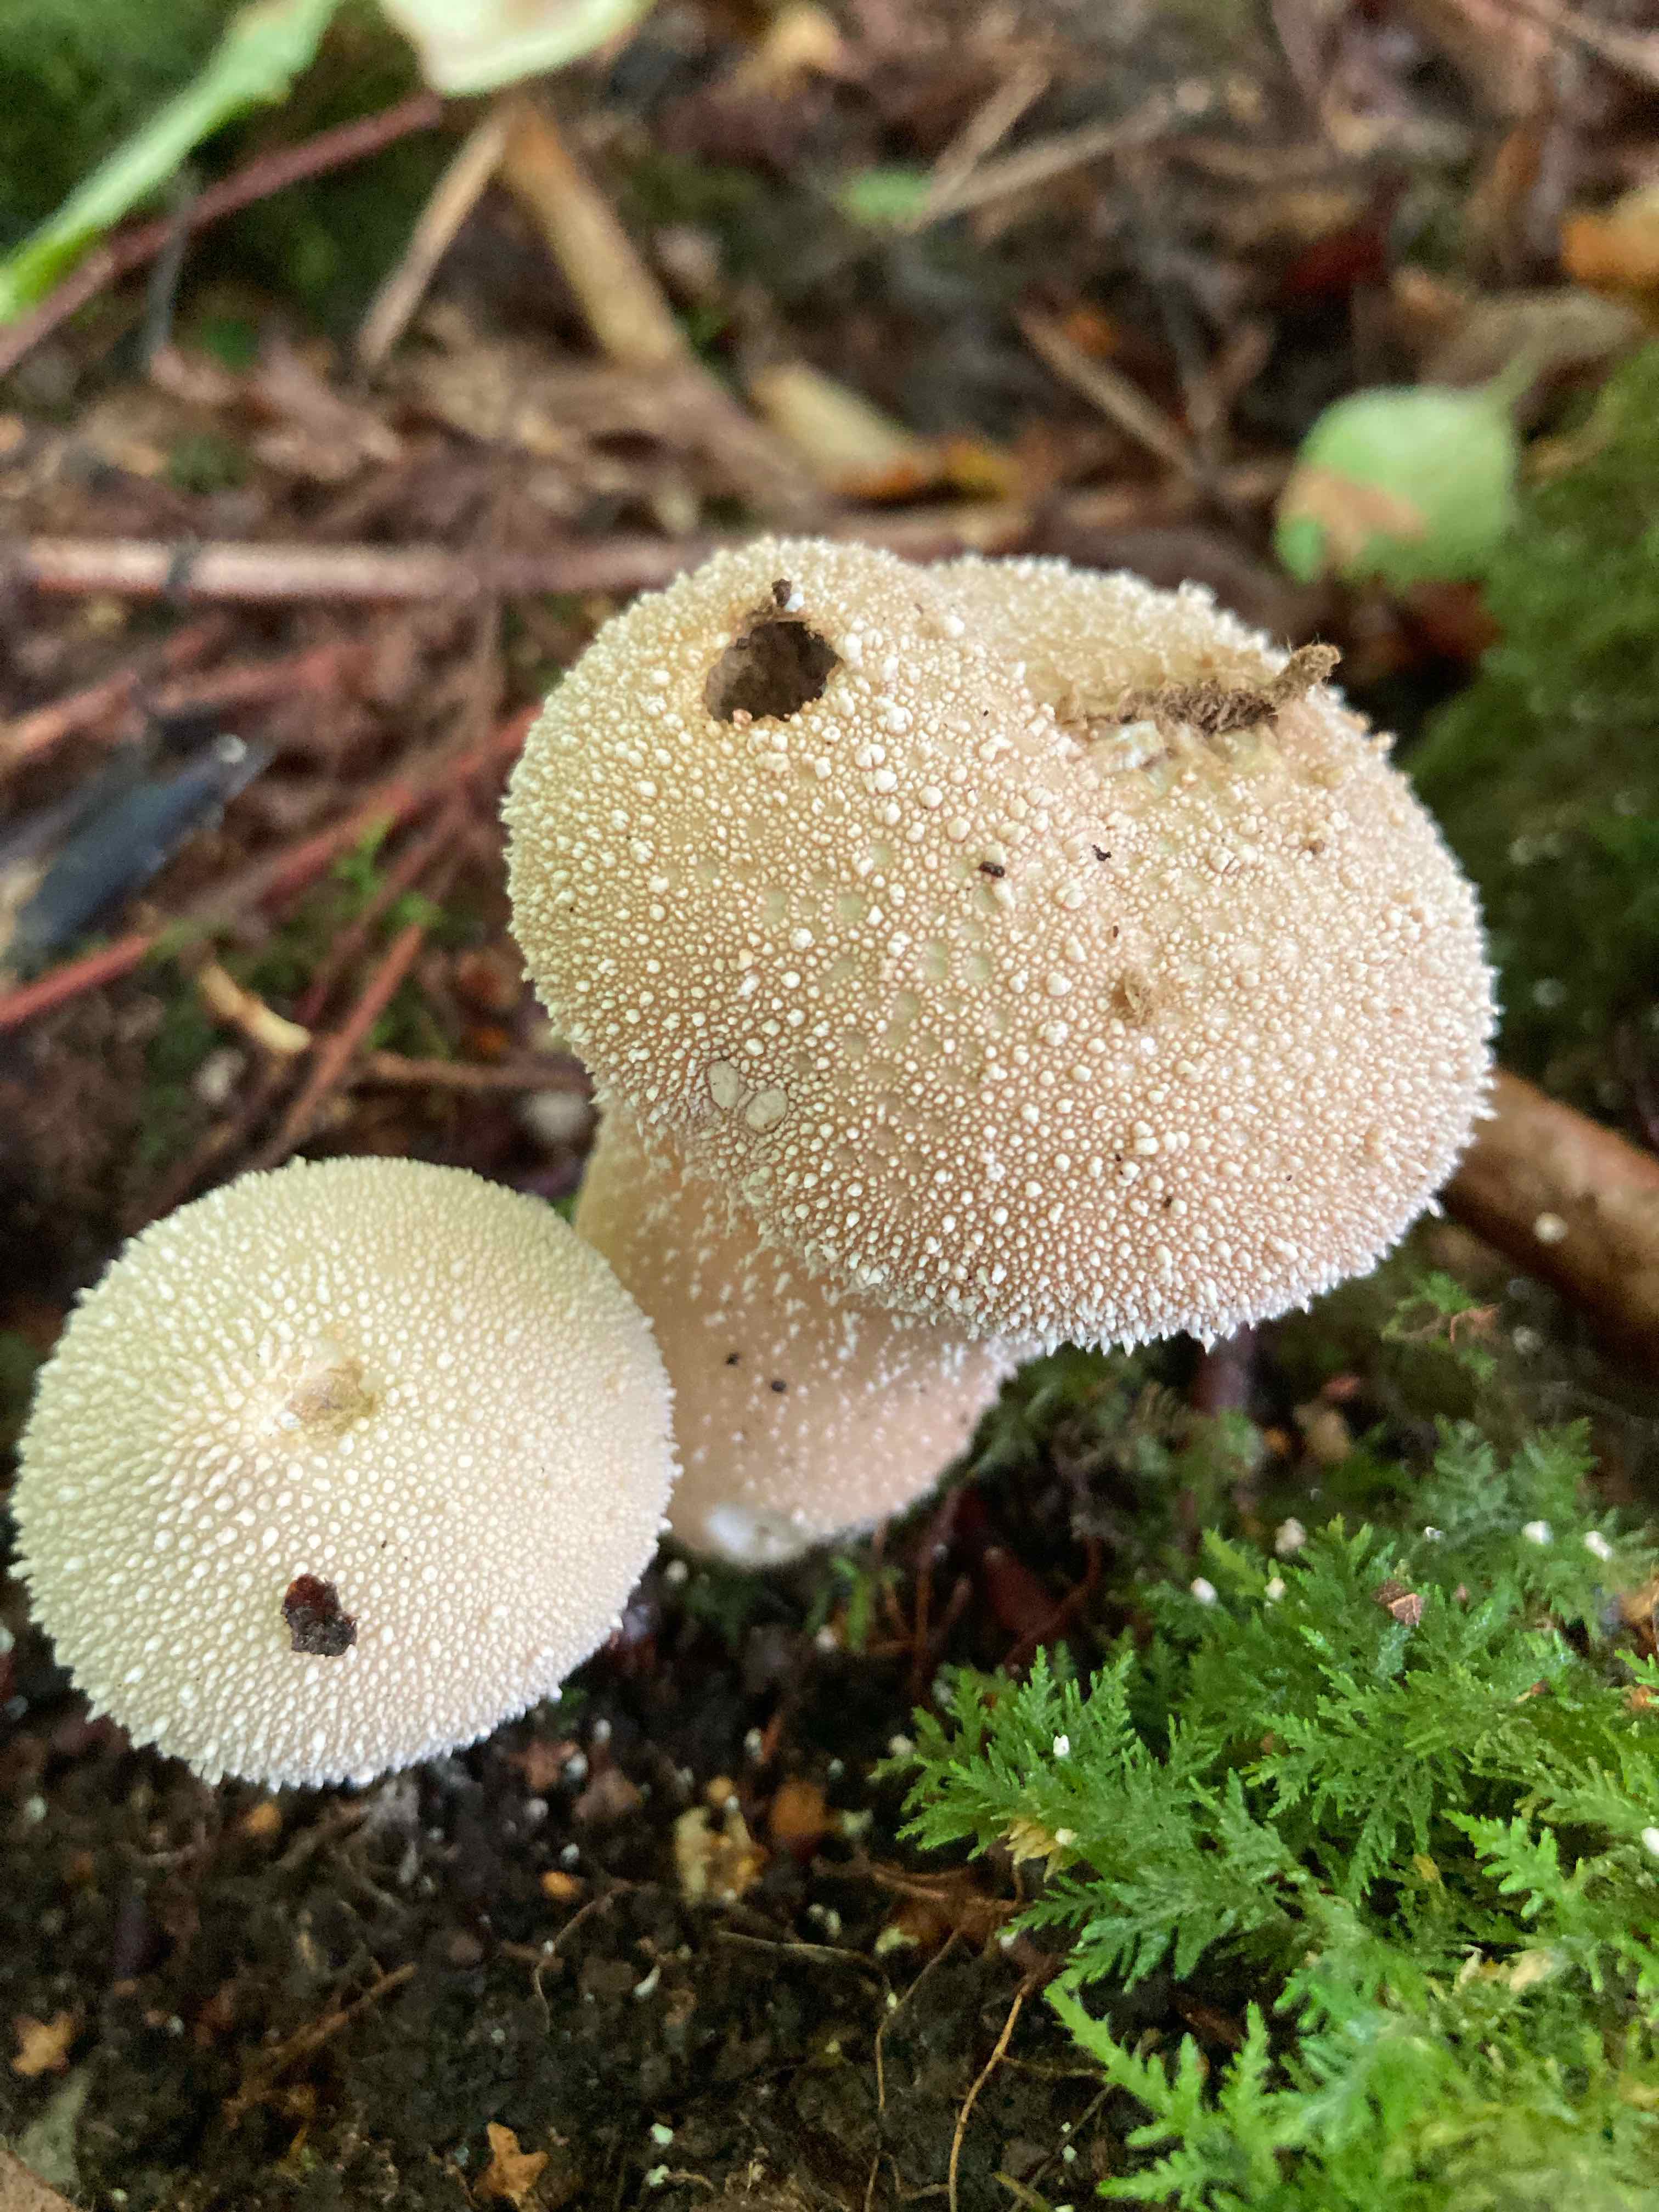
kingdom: Fungi
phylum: Basidiomycota
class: Agaricomycetes
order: Agaricales
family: Lycoperdaceae
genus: Lycoperdon
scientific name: Lycoperdon perlatum
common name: krystal-støvbold
